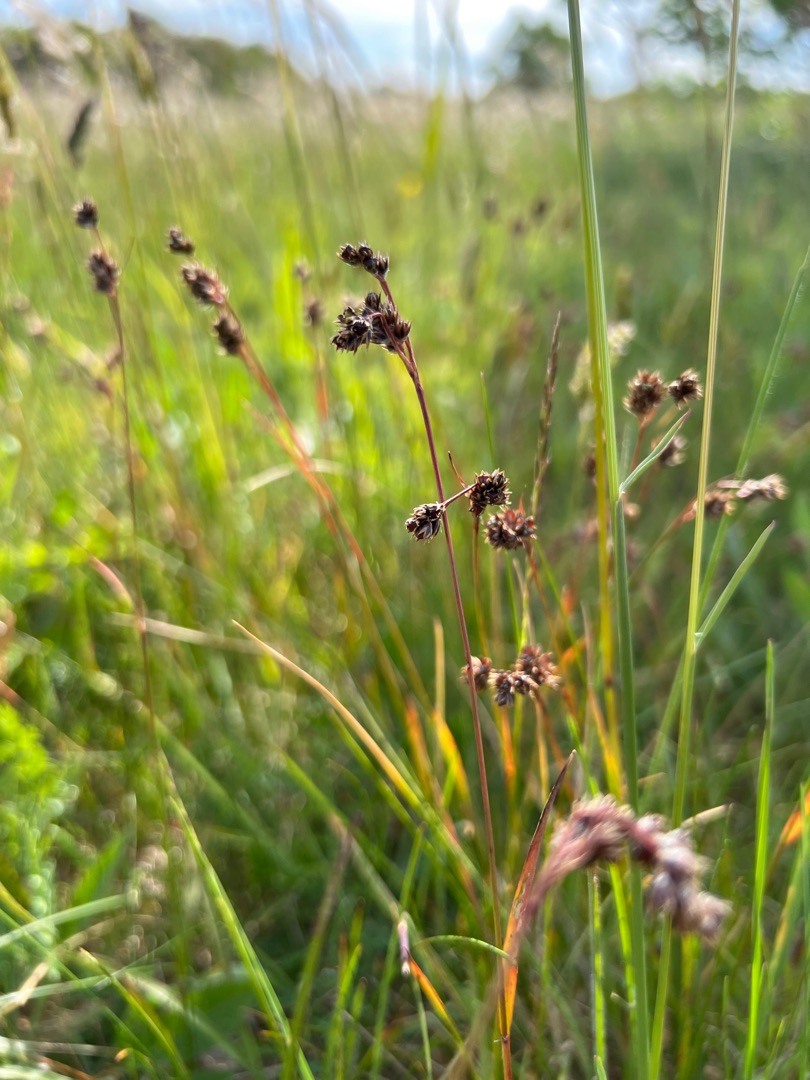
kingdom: Plantae
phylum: Tracheophyta
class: Liliopsida
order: Poales
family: Juncaceae
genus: Luzula
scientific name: Luzula campestris
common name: Mark-frytle
